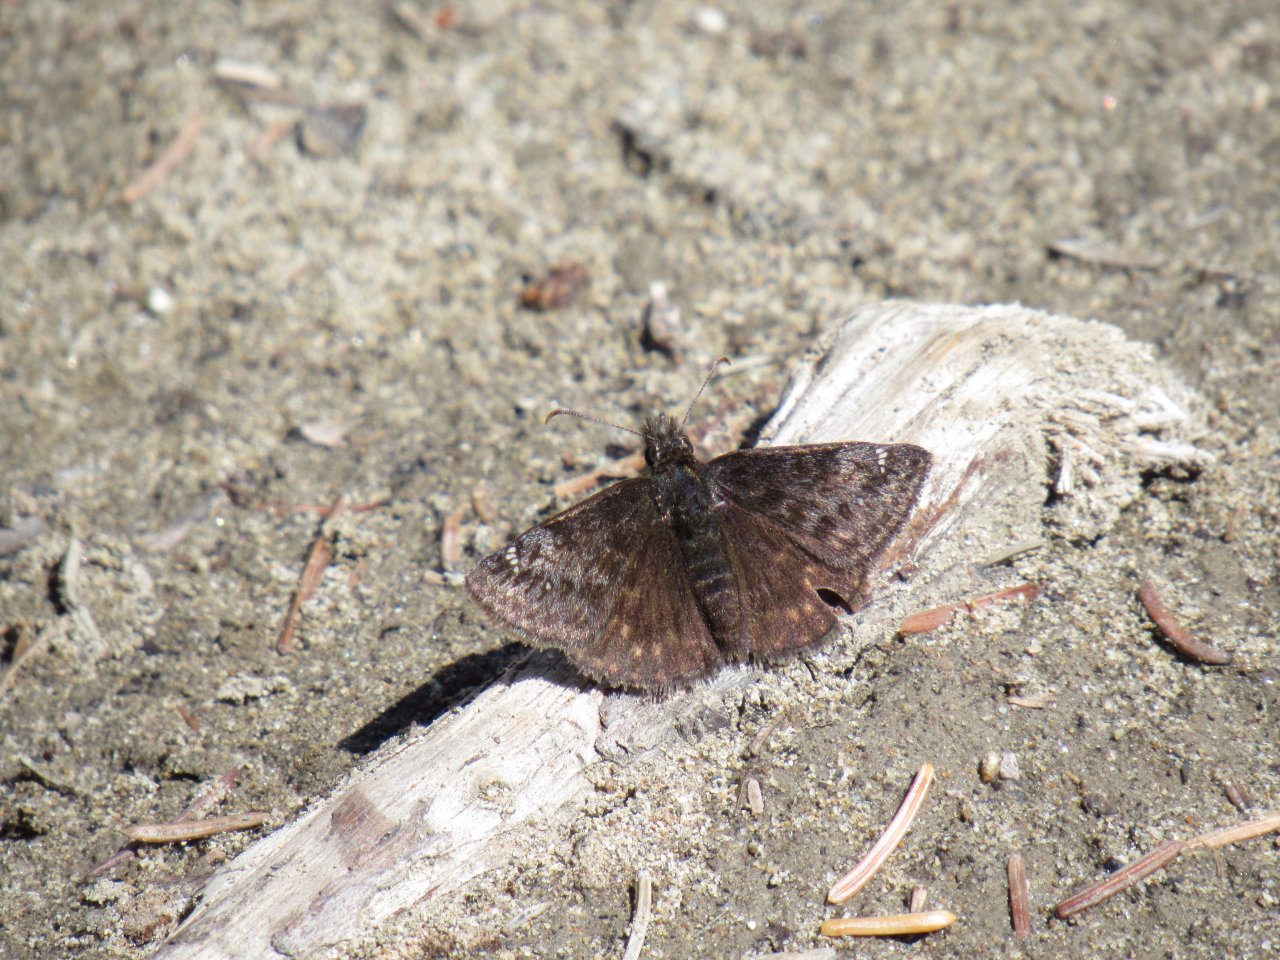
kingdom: Animalia
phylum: Arthropoda
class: Insecta
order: Lepidoptera
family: Hesperiidae
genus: Gesta
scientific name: Gesta
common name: Persius Duskywing
